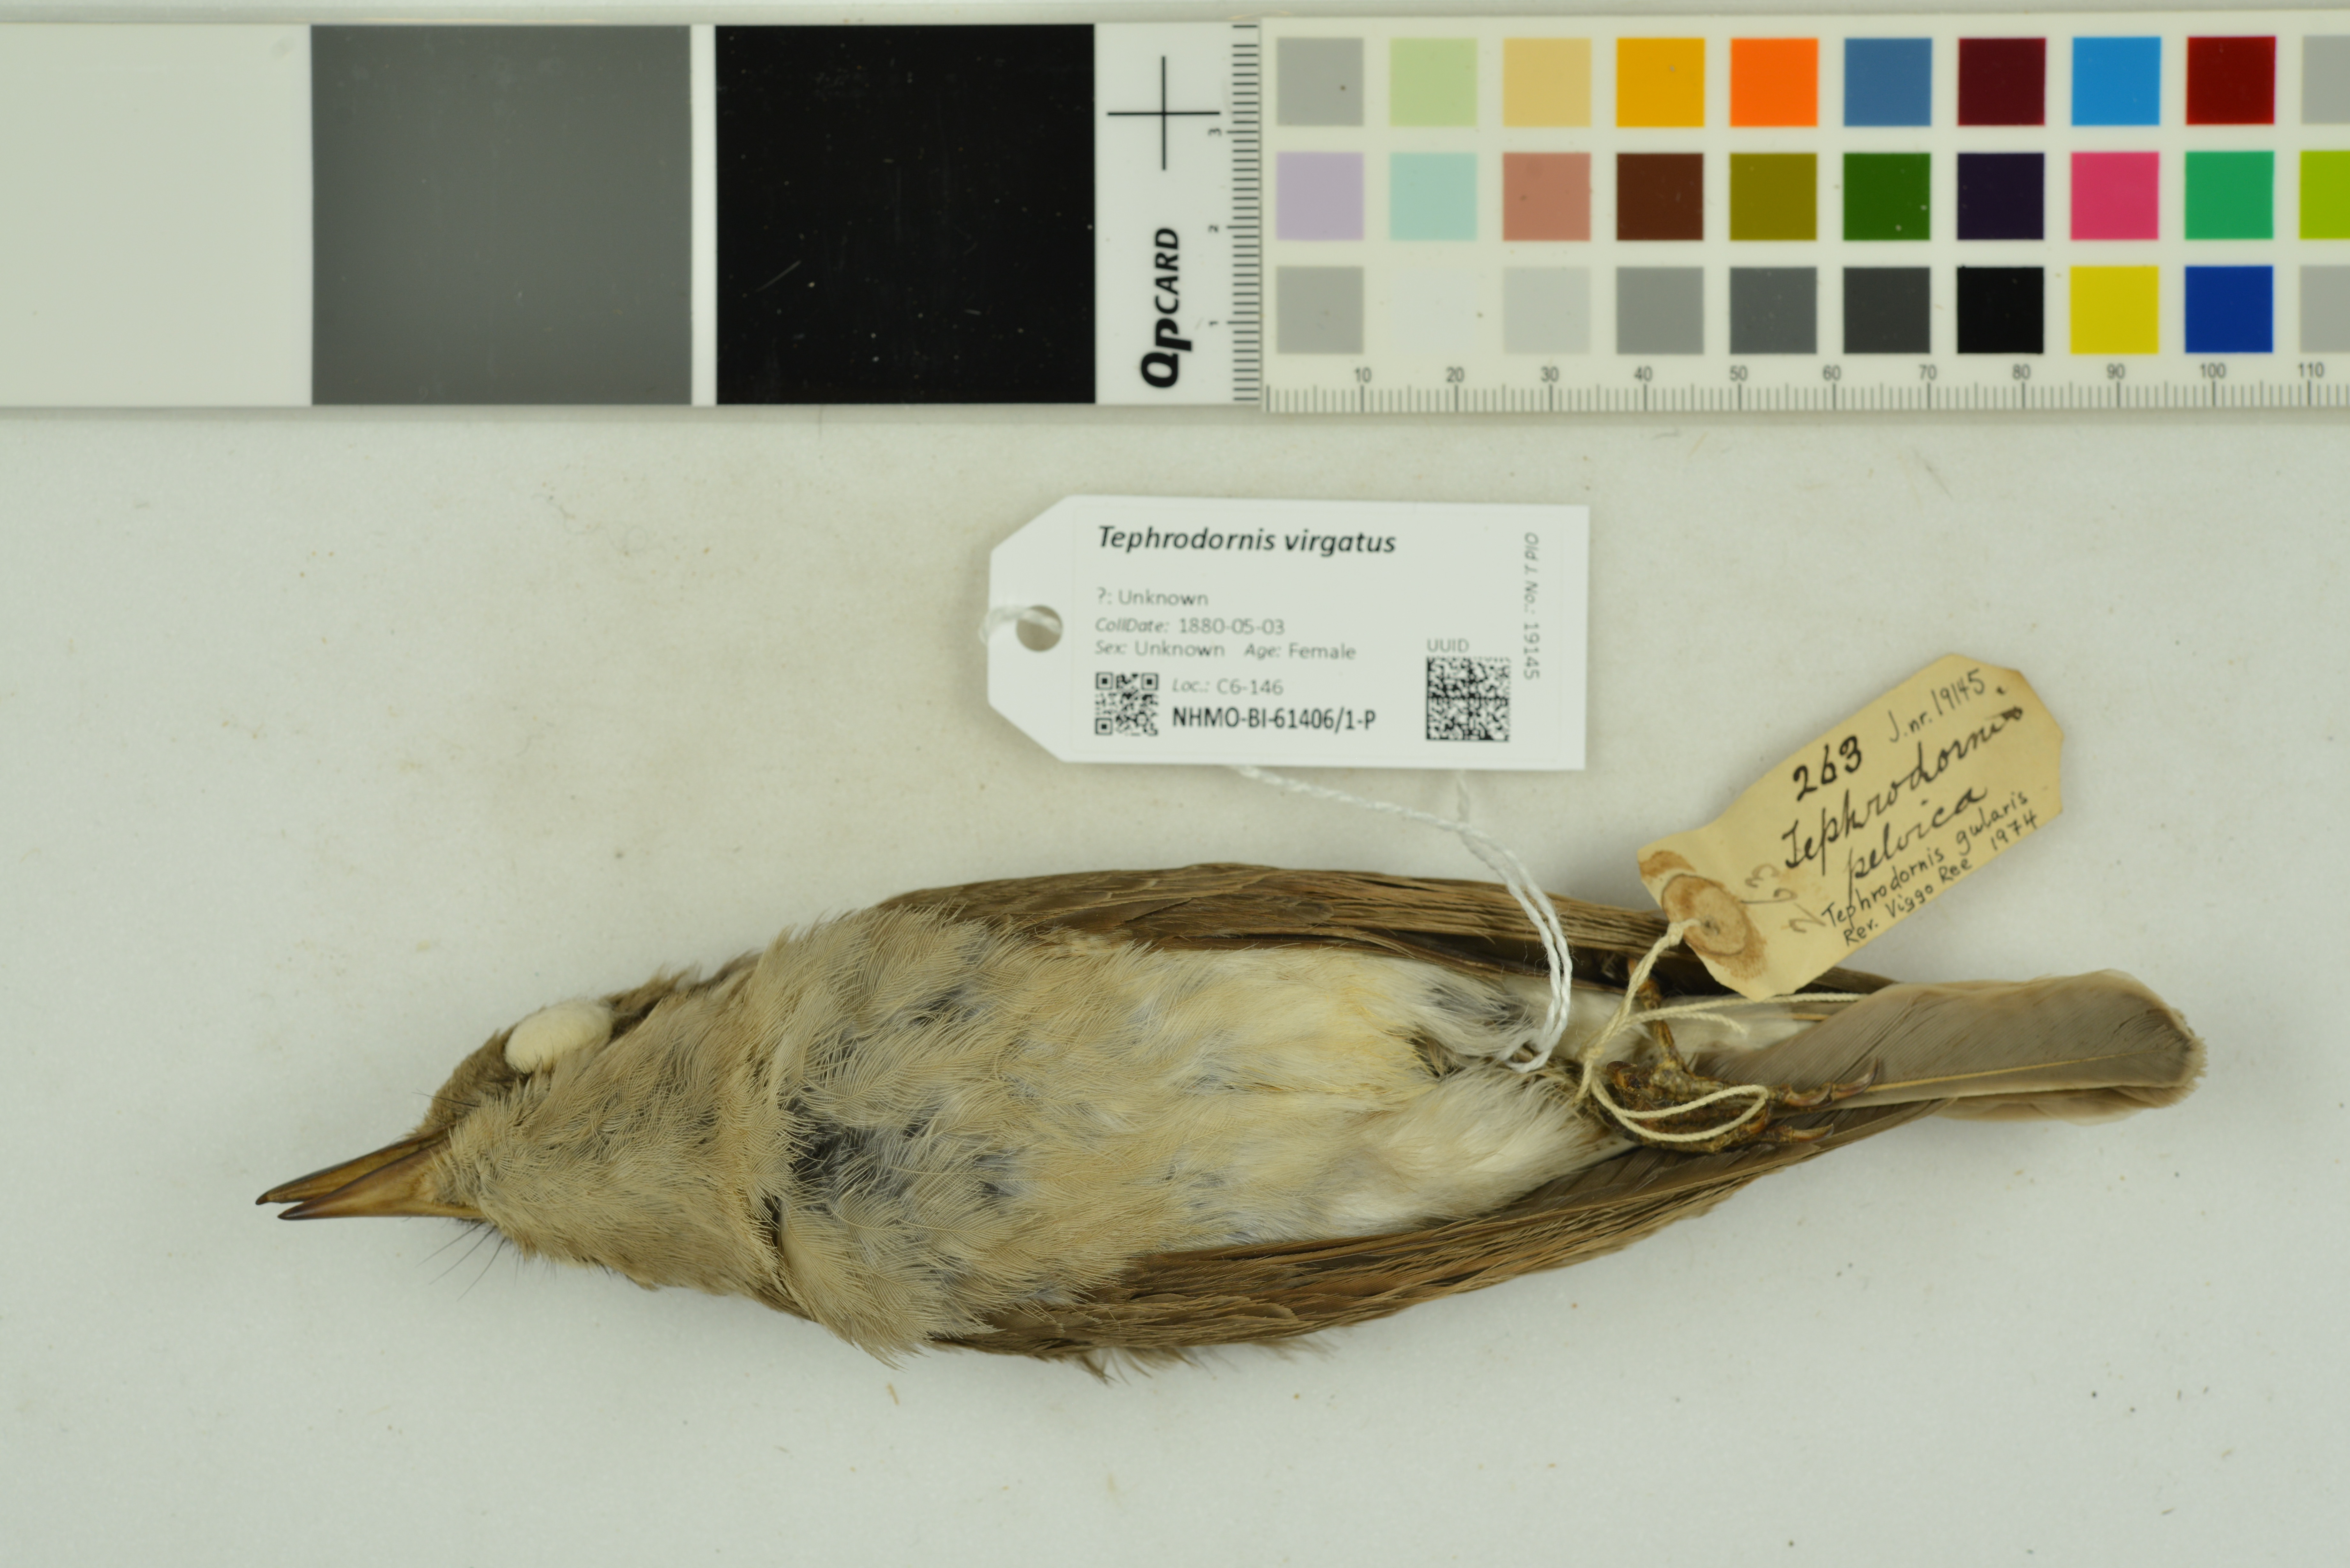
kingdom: Animalia
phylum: Chordata
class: Aves
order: Passeriformes
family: Tephrodornithidae
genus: Tephrodornis
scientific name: Tephrodornis virgatus
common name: Large woodshrike
